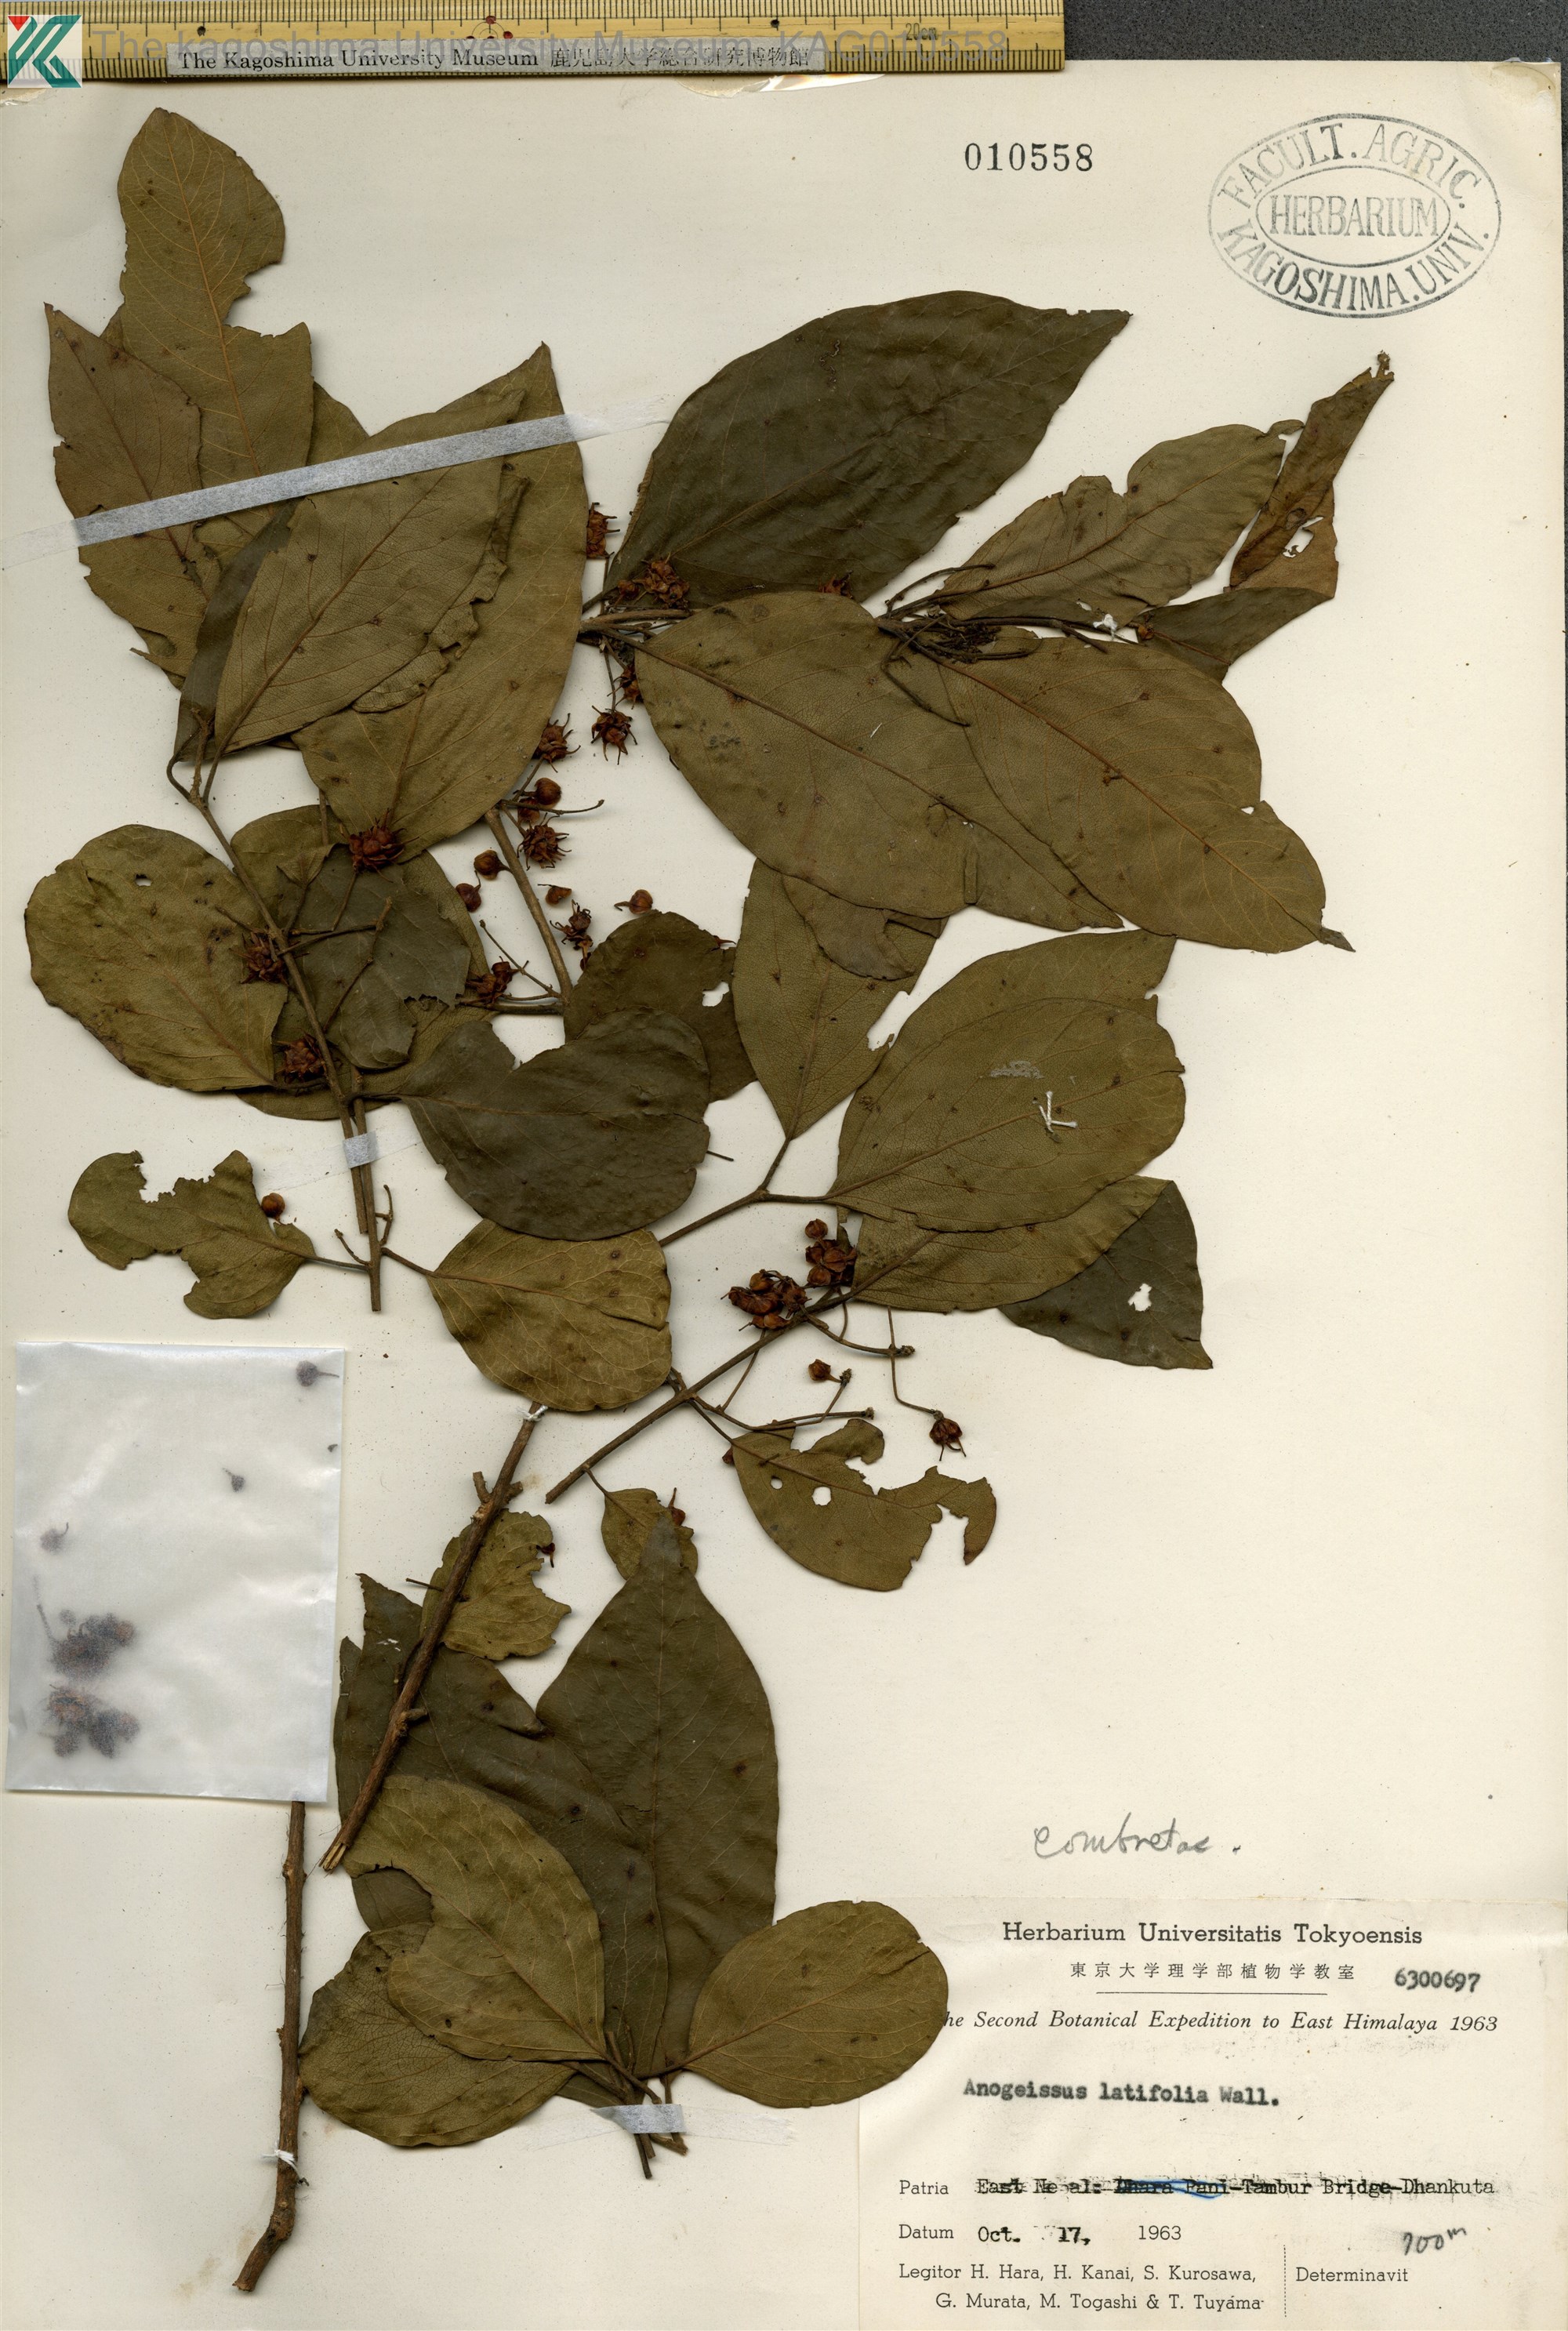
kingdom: Plantae
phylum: Tracheophyta
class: Magnoliopsida
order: Myrtales
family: Combretaceae
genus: Terminalia
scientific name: Terminalia anogeissiana
